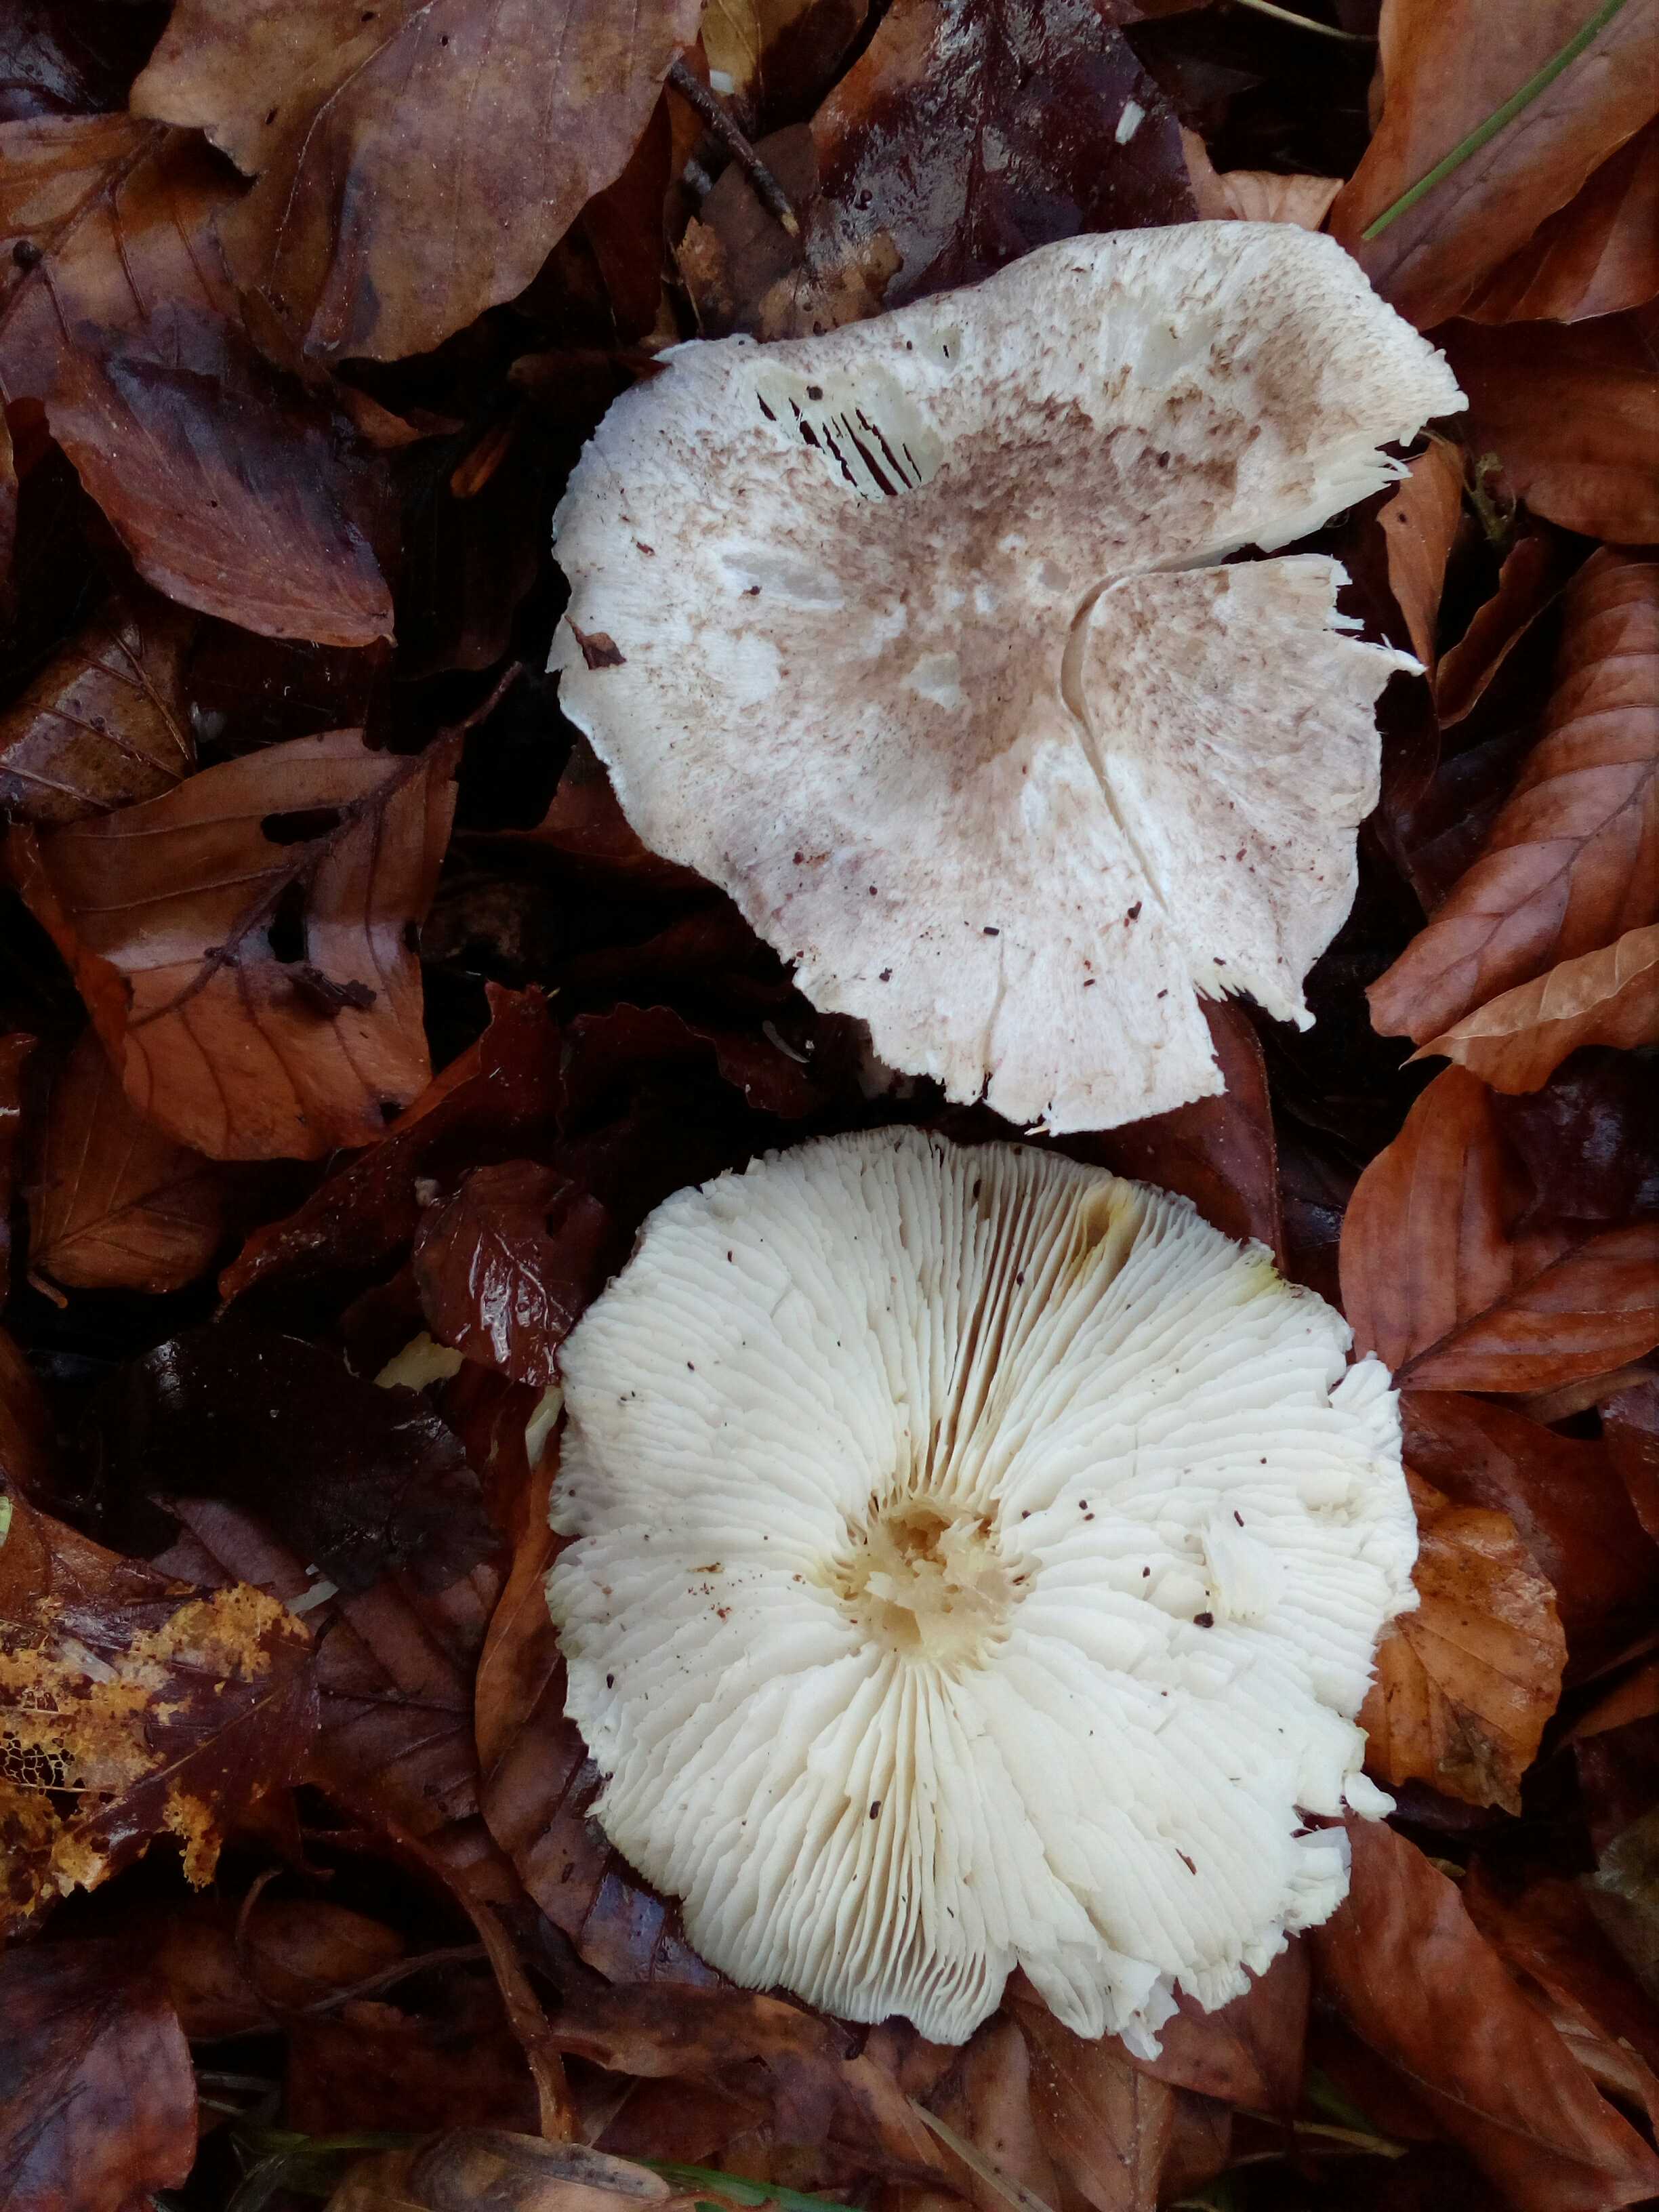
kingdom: Fungi
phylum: Basidiomycota
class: Agaricomycetes
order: Agaricales
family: Tricholomataceae
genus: Tricholoma
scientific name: Tricholoma scalpturatum
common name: gulplettet ridderhat
